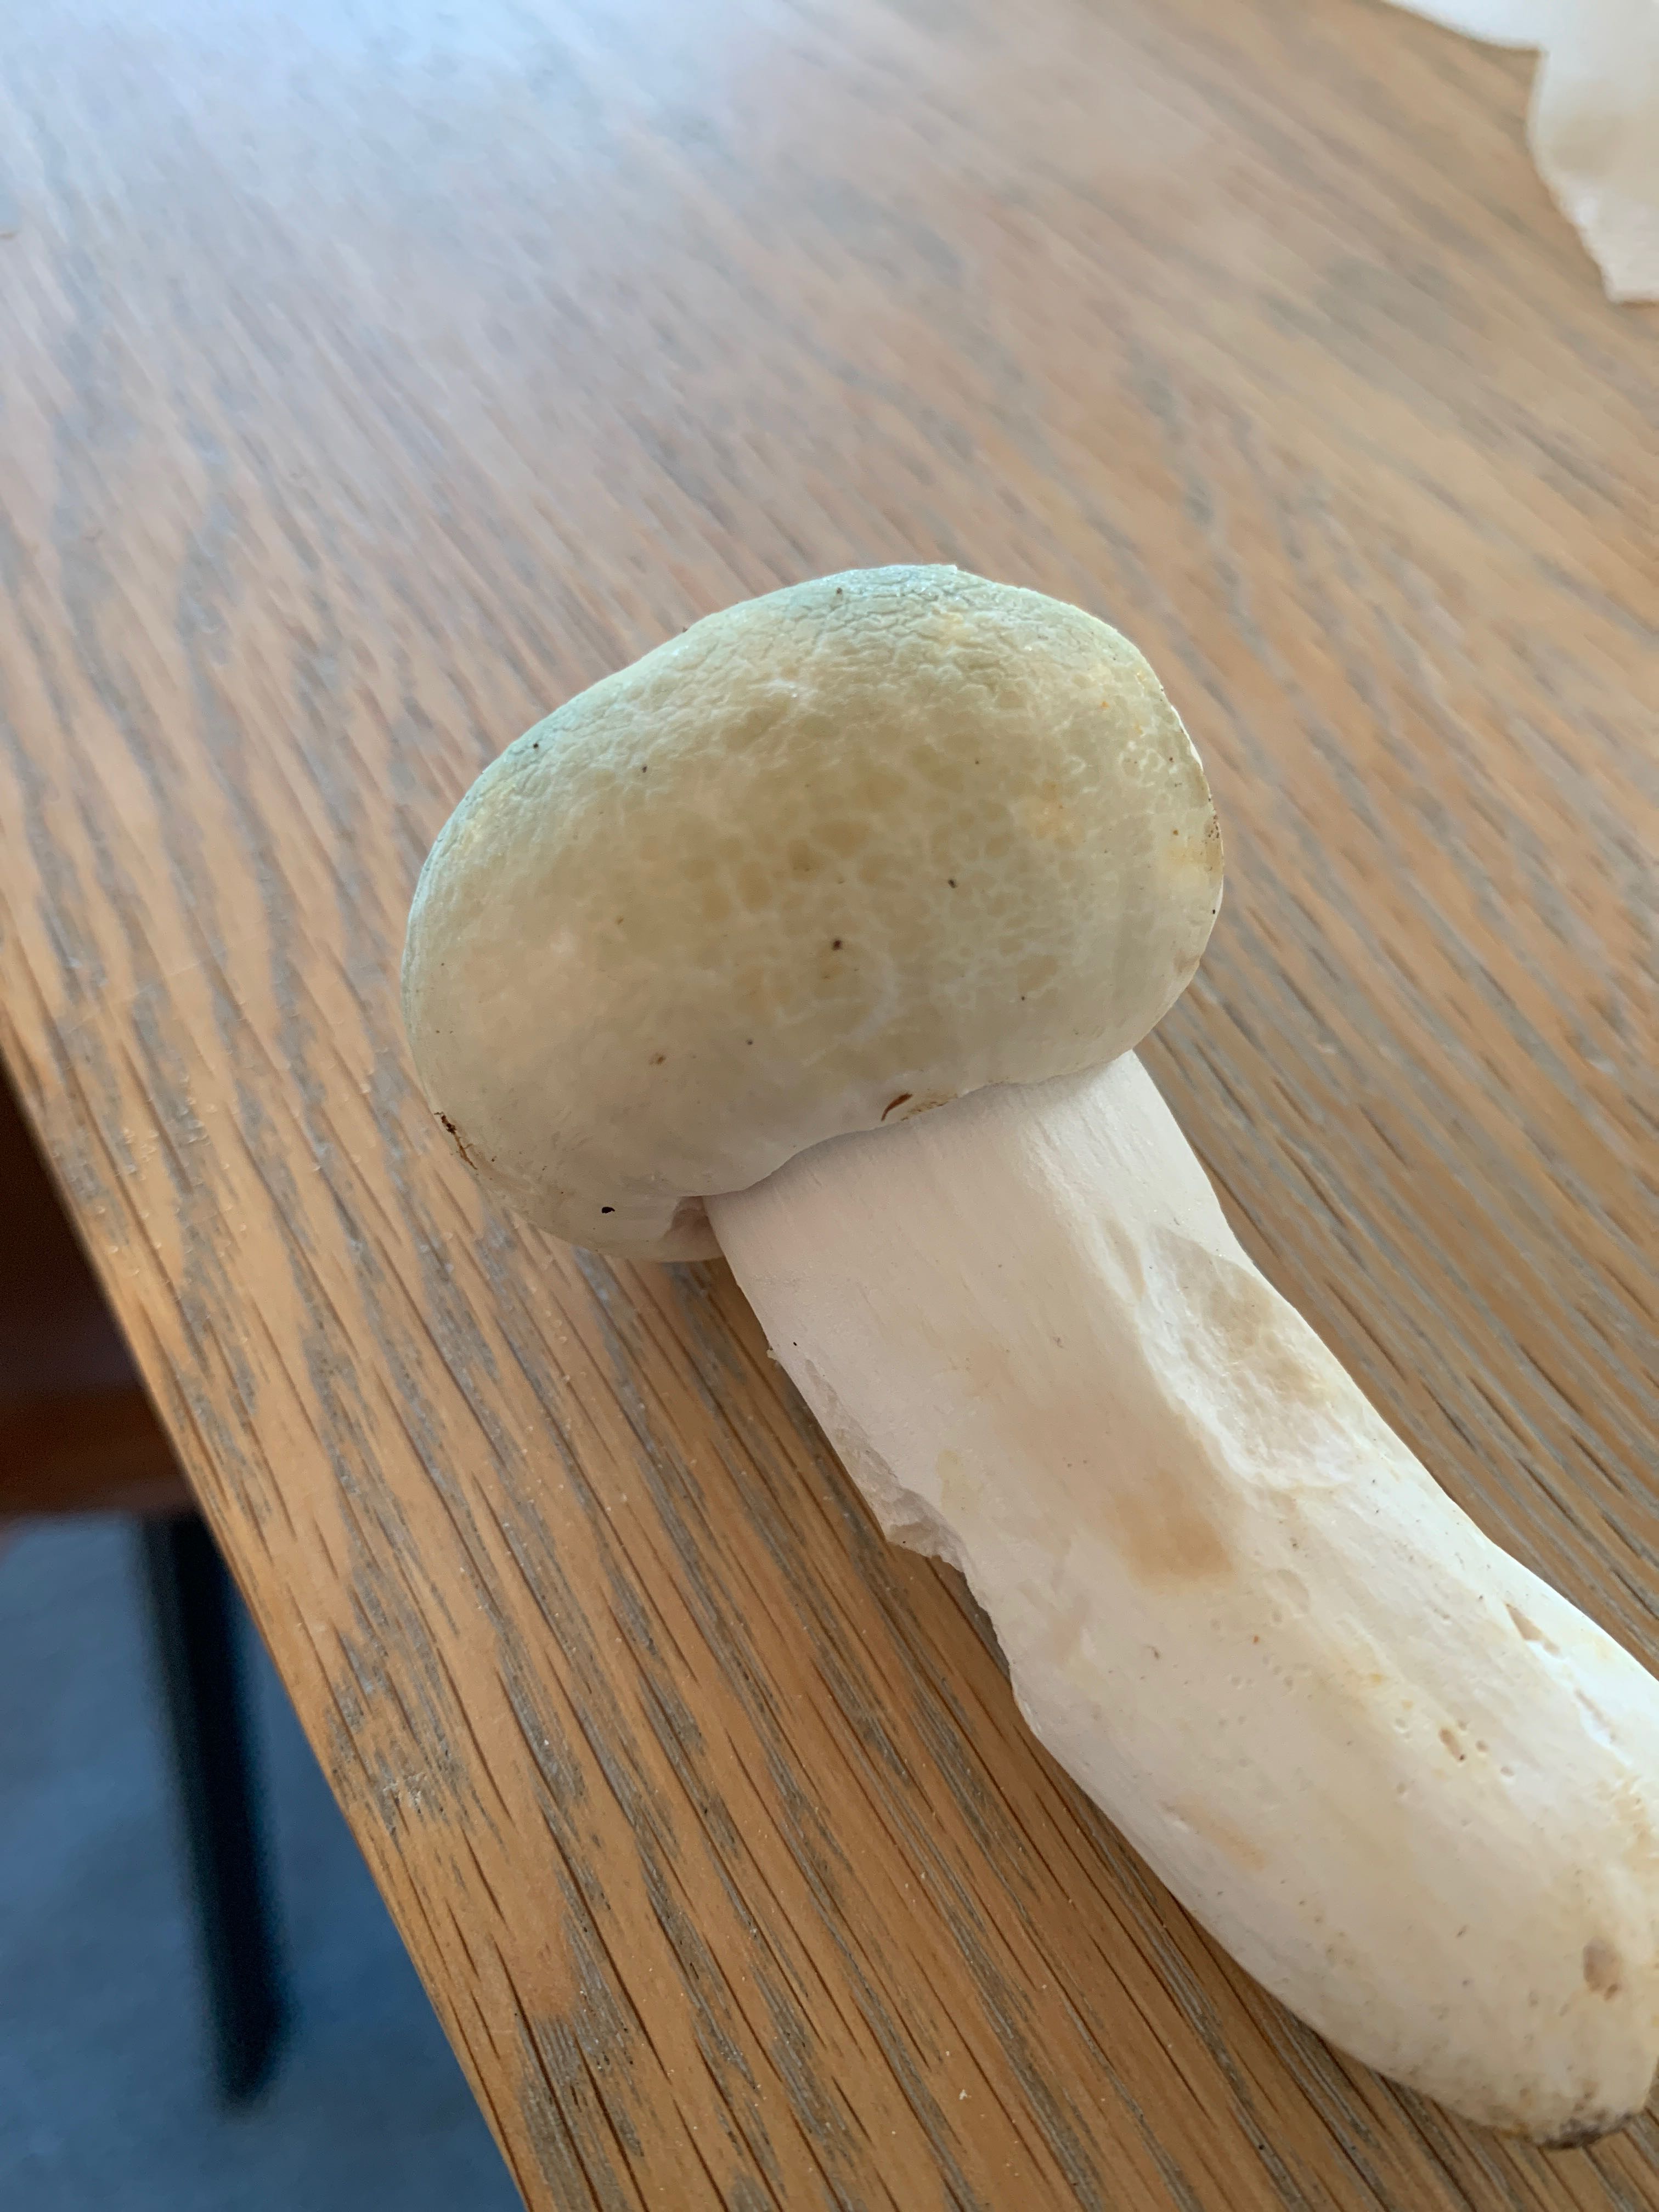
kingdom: Fungi
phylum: Basidiomycota
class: Agaricomycetes
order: Russulales
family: Russulaceae
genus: Russula
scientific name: Russula virescens
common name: spanskgrøn skørhat
